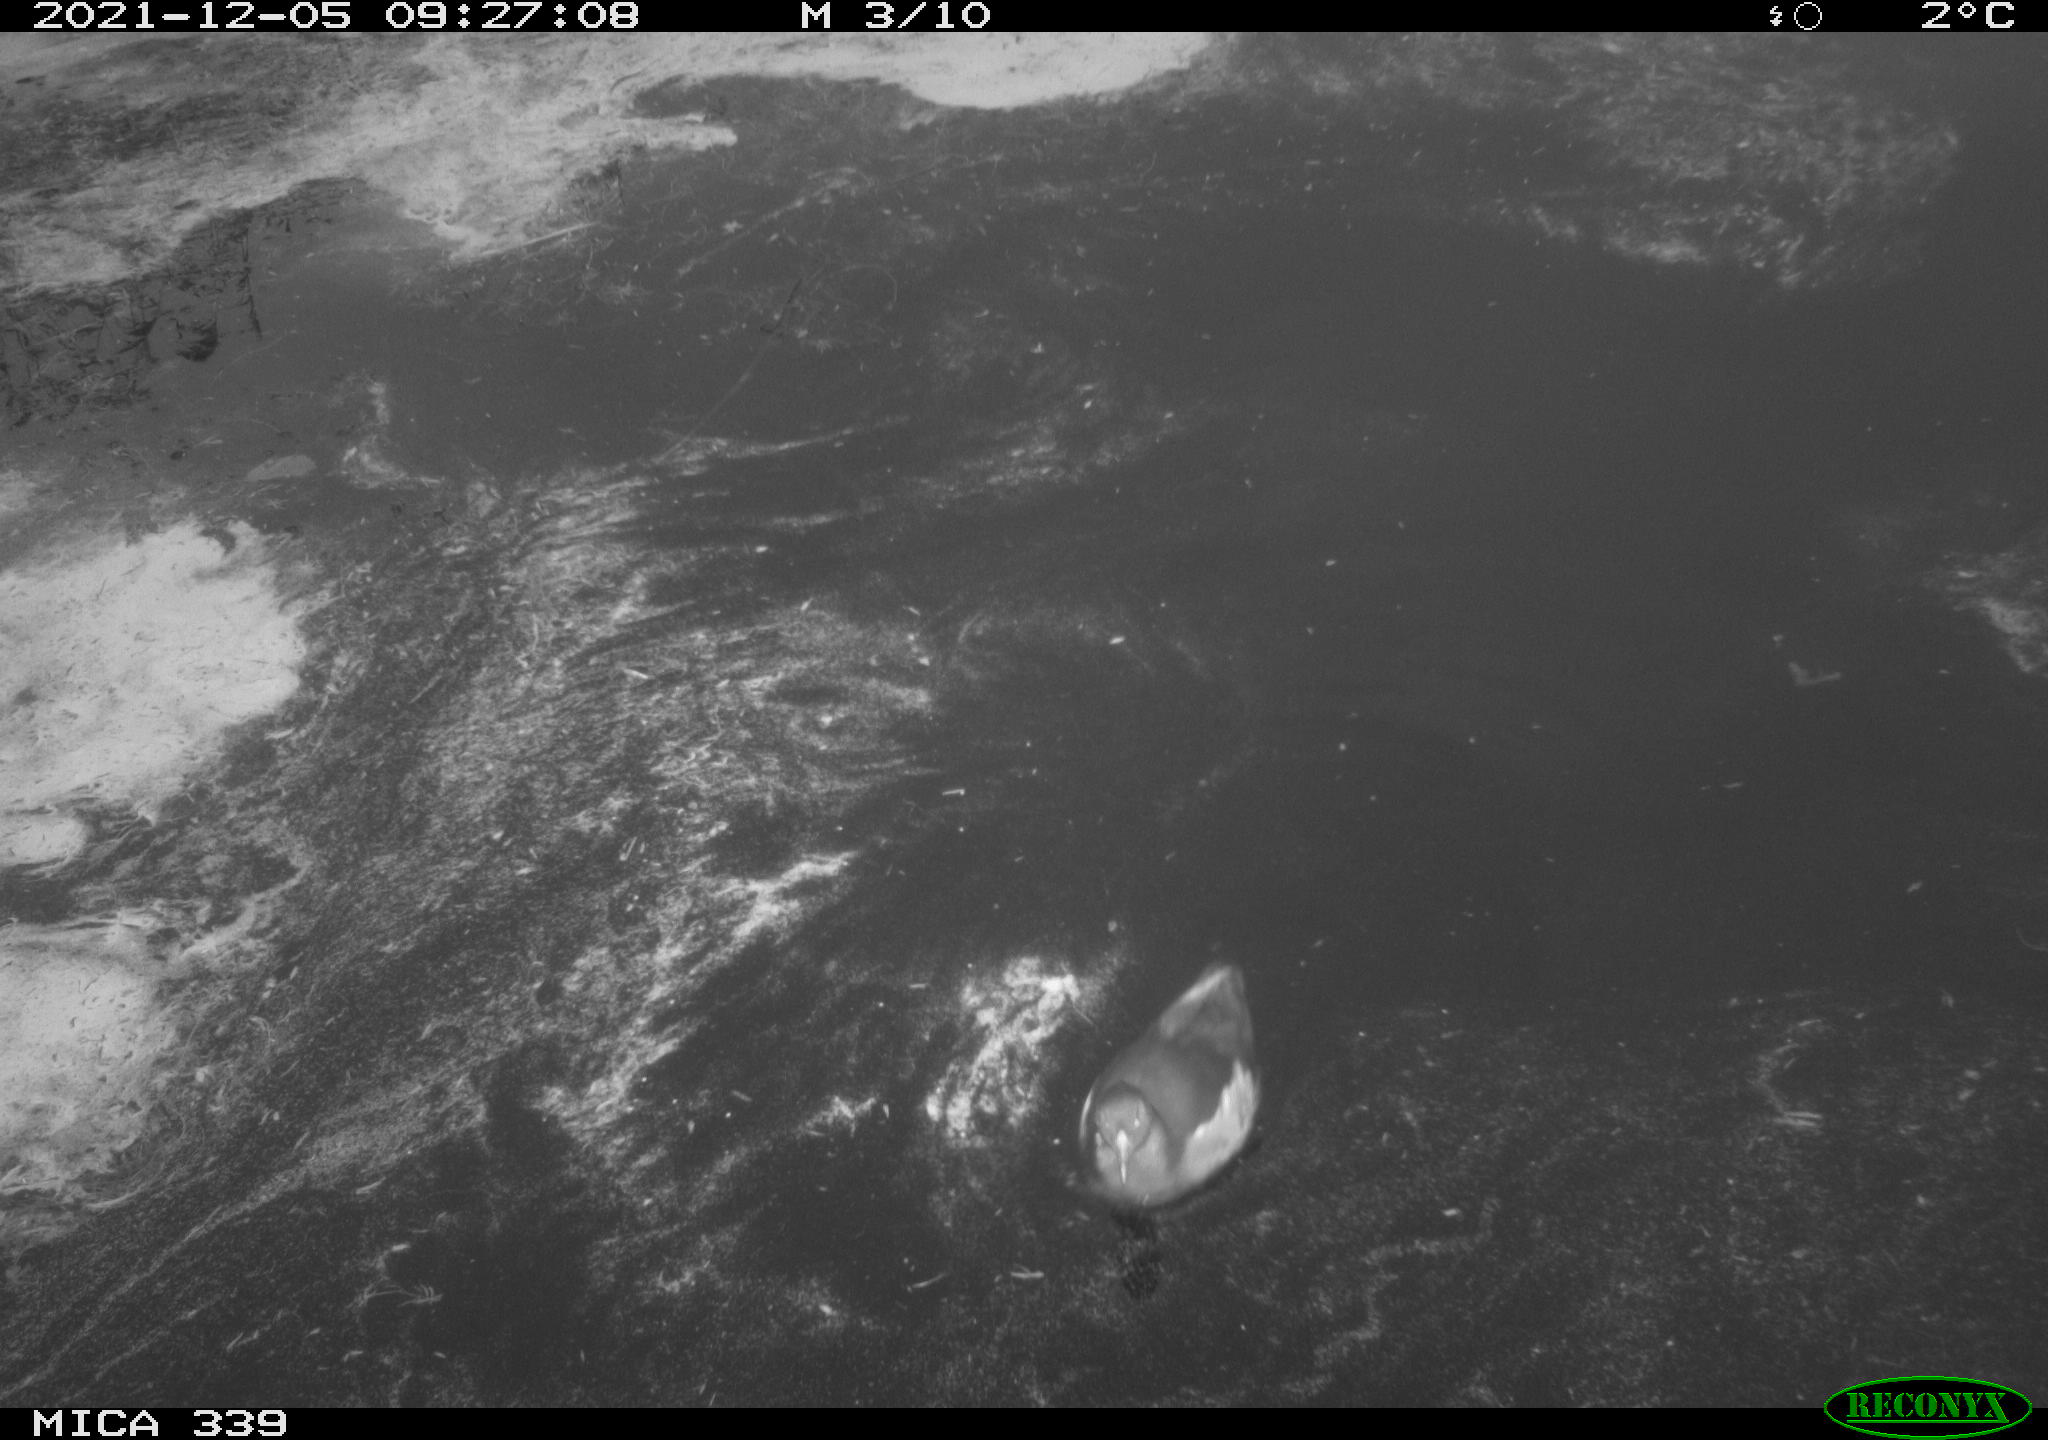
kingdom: Animalia
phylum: Chordata
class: Aves
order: Gruiformes
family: Rallidae
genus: Gallinula
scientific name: Gallinula chloropus
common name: Common moorhen
